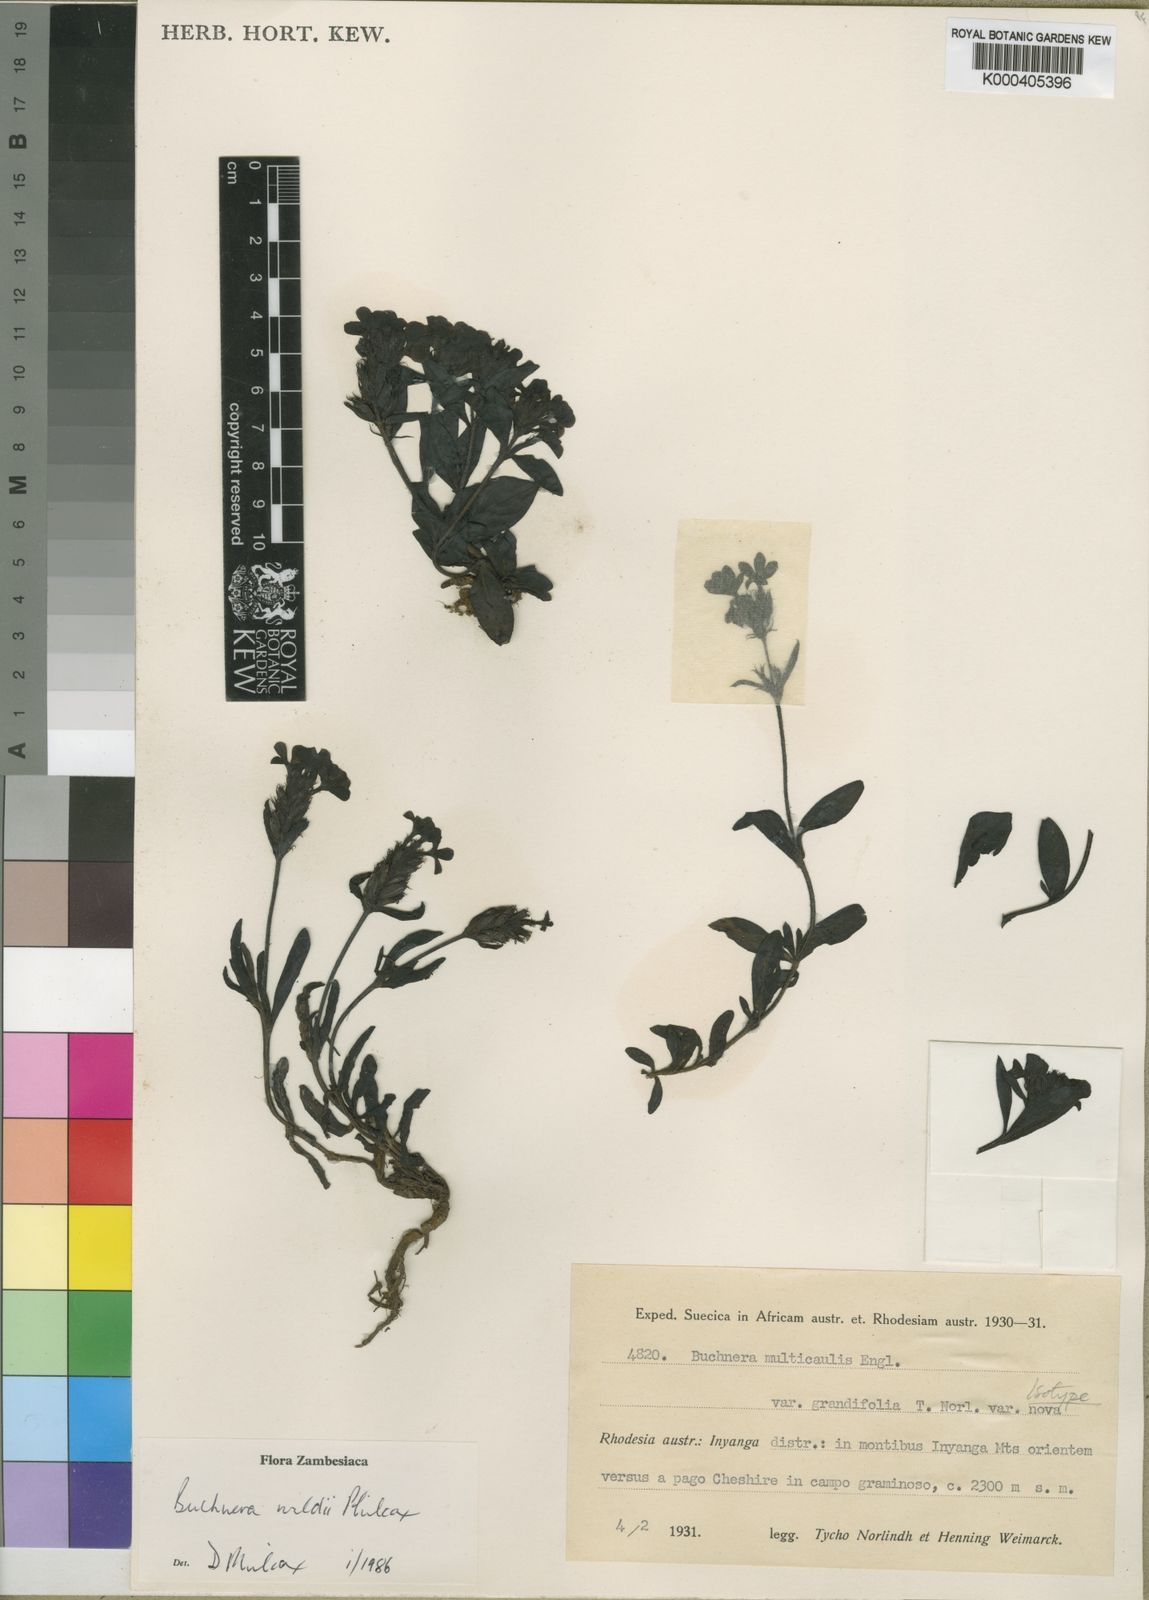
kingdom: Plantae
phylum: Tracheophyta
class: Magnoliopsida
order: Lamiales
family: Orobanchaceae
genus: Buchnera
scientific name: Buchnera wildii
